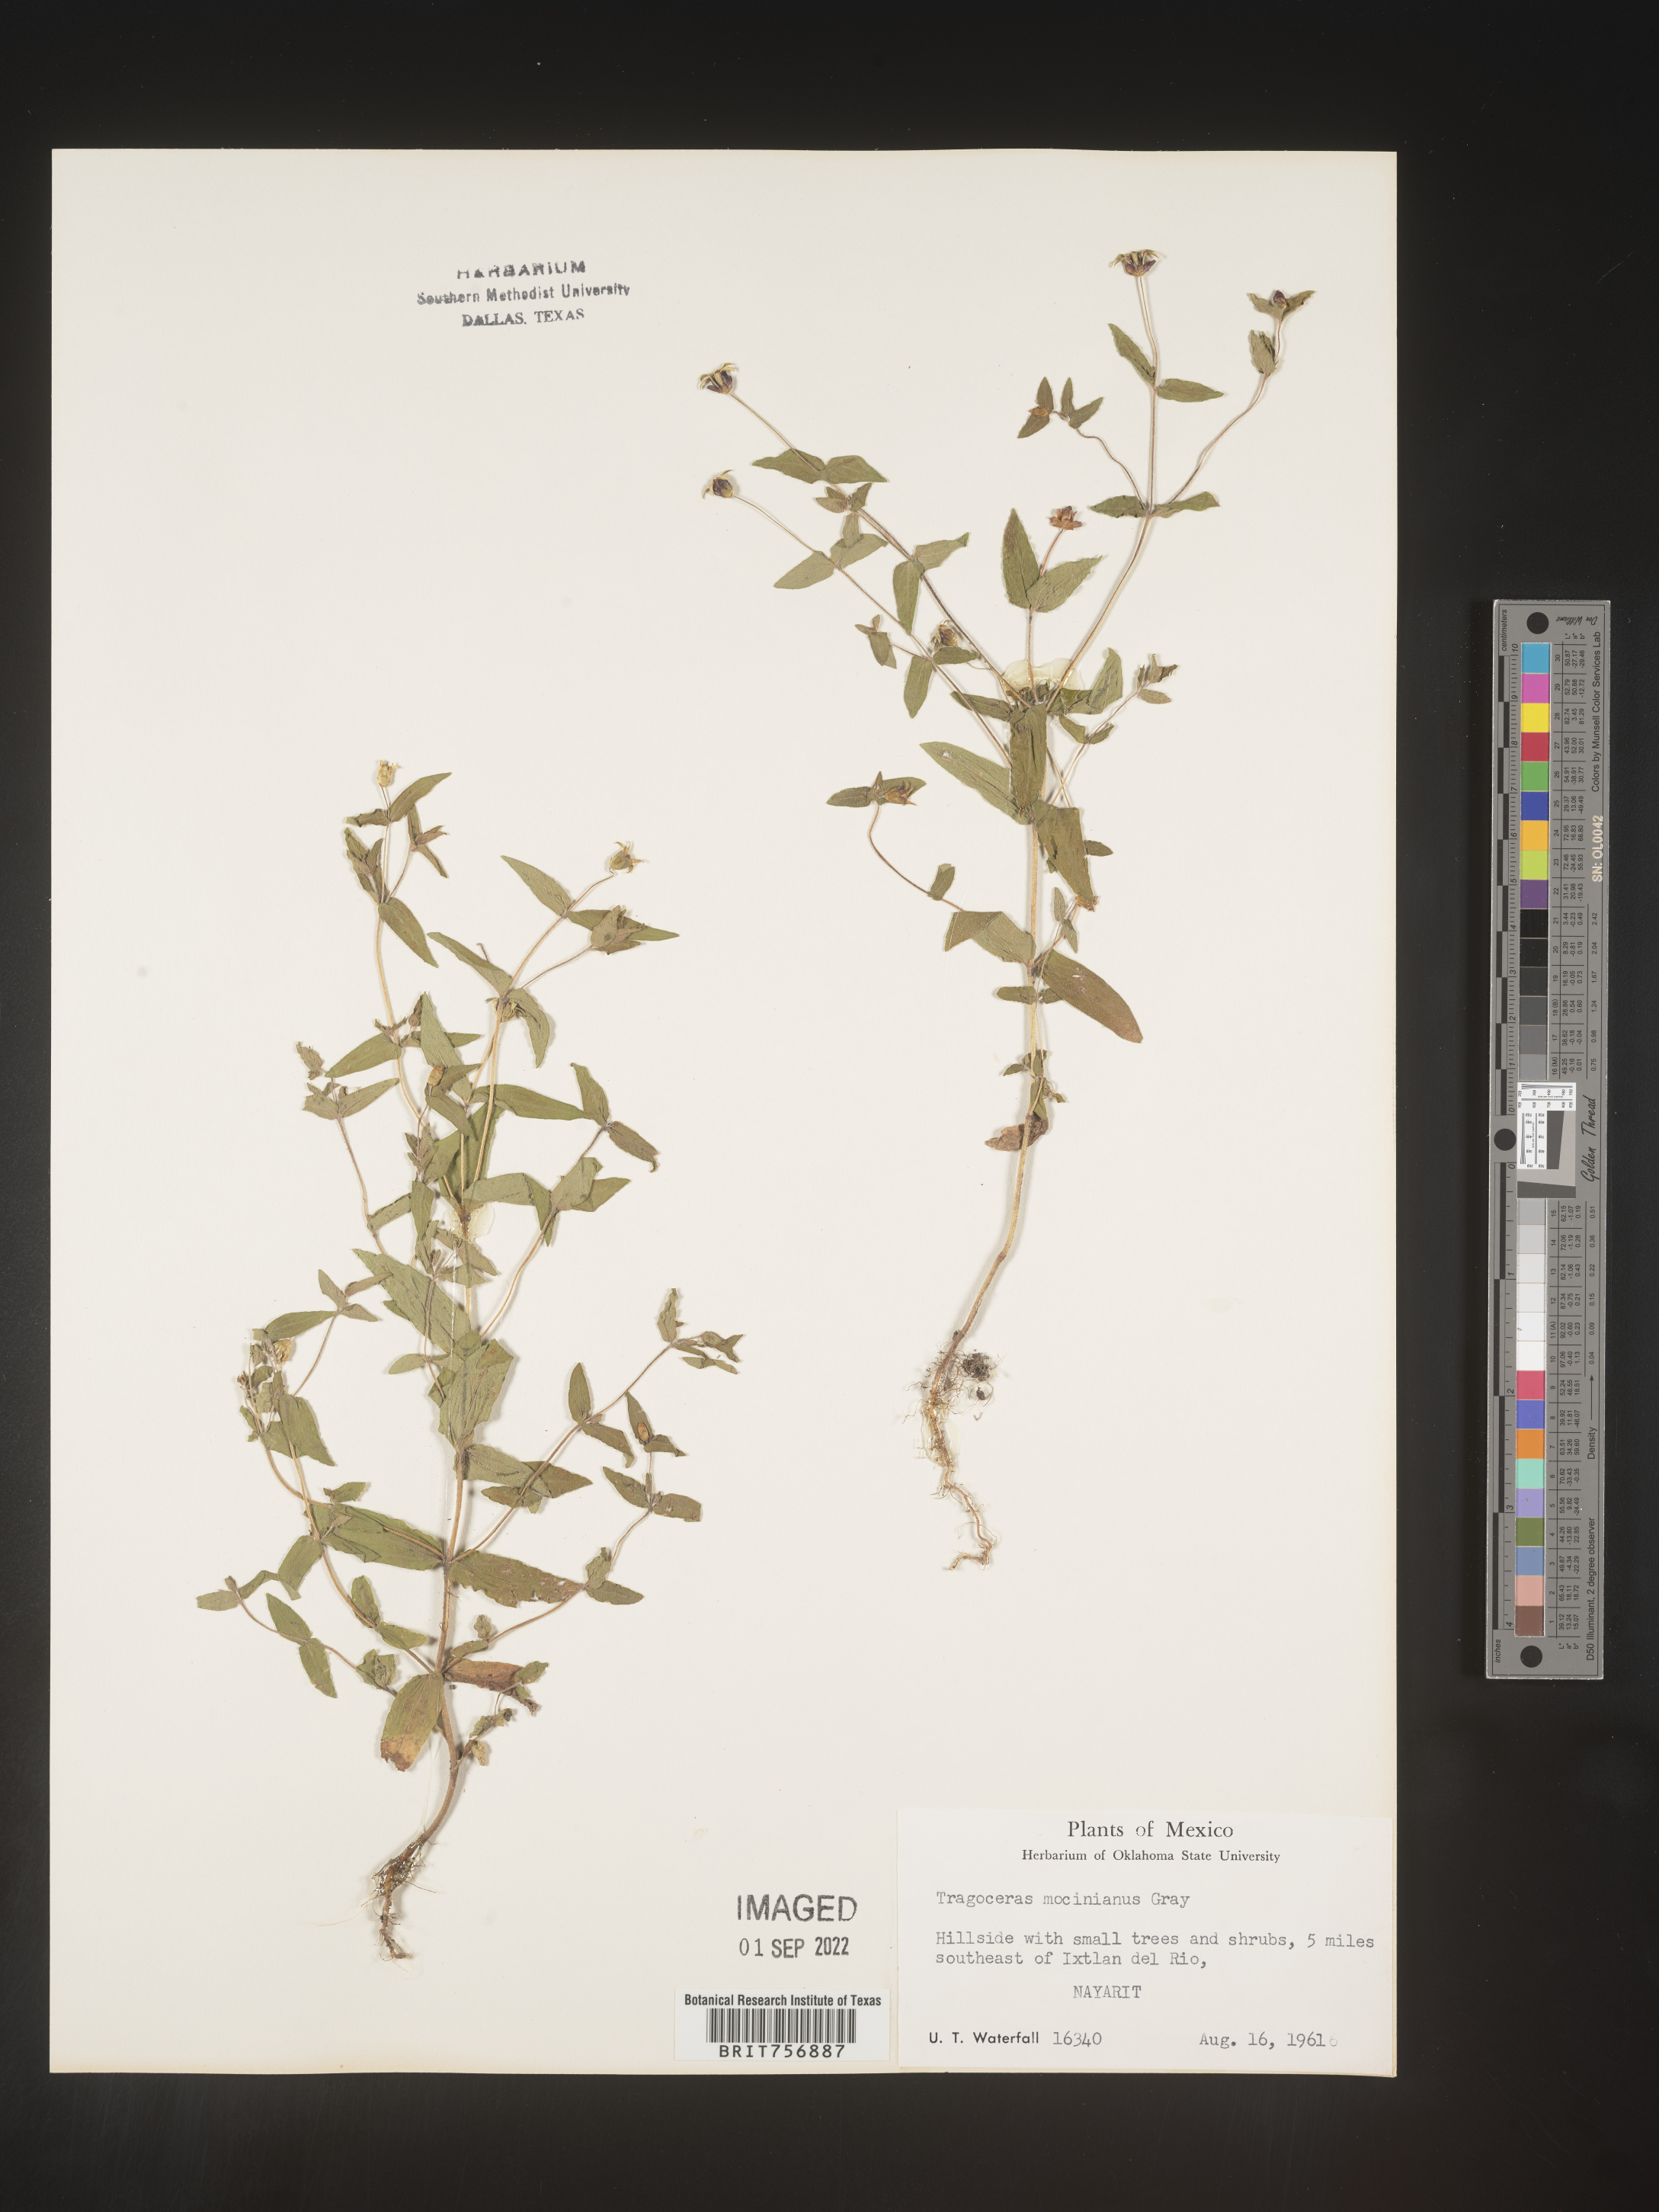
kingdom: Plantae
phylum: Tracheophyta
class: Magnoliopsida
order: Asterales
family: Asteraceae
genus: Zinnia
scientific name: Zinnia
